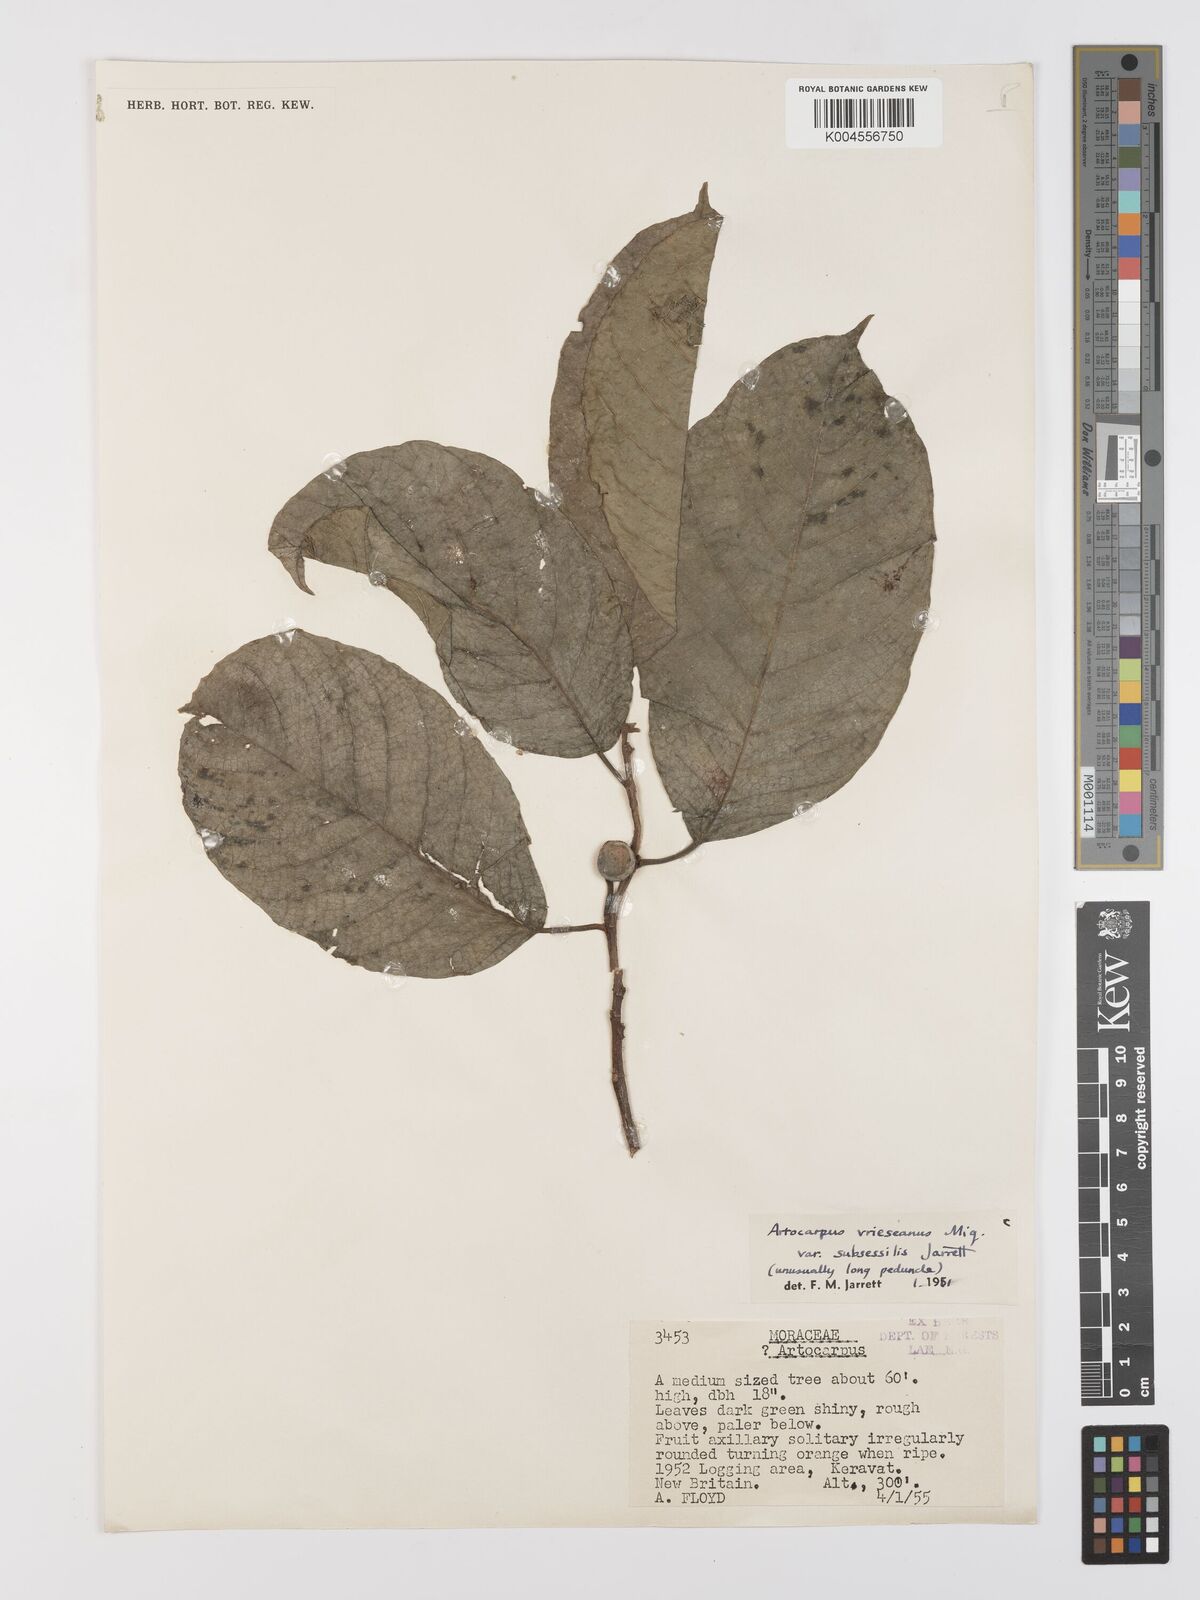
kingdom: Plantae
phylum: Tracheophyta
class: Magnoliopsida
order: Rosales
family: Moraceae
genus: Artocarpus
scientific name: Artocarpus vrieseanus
